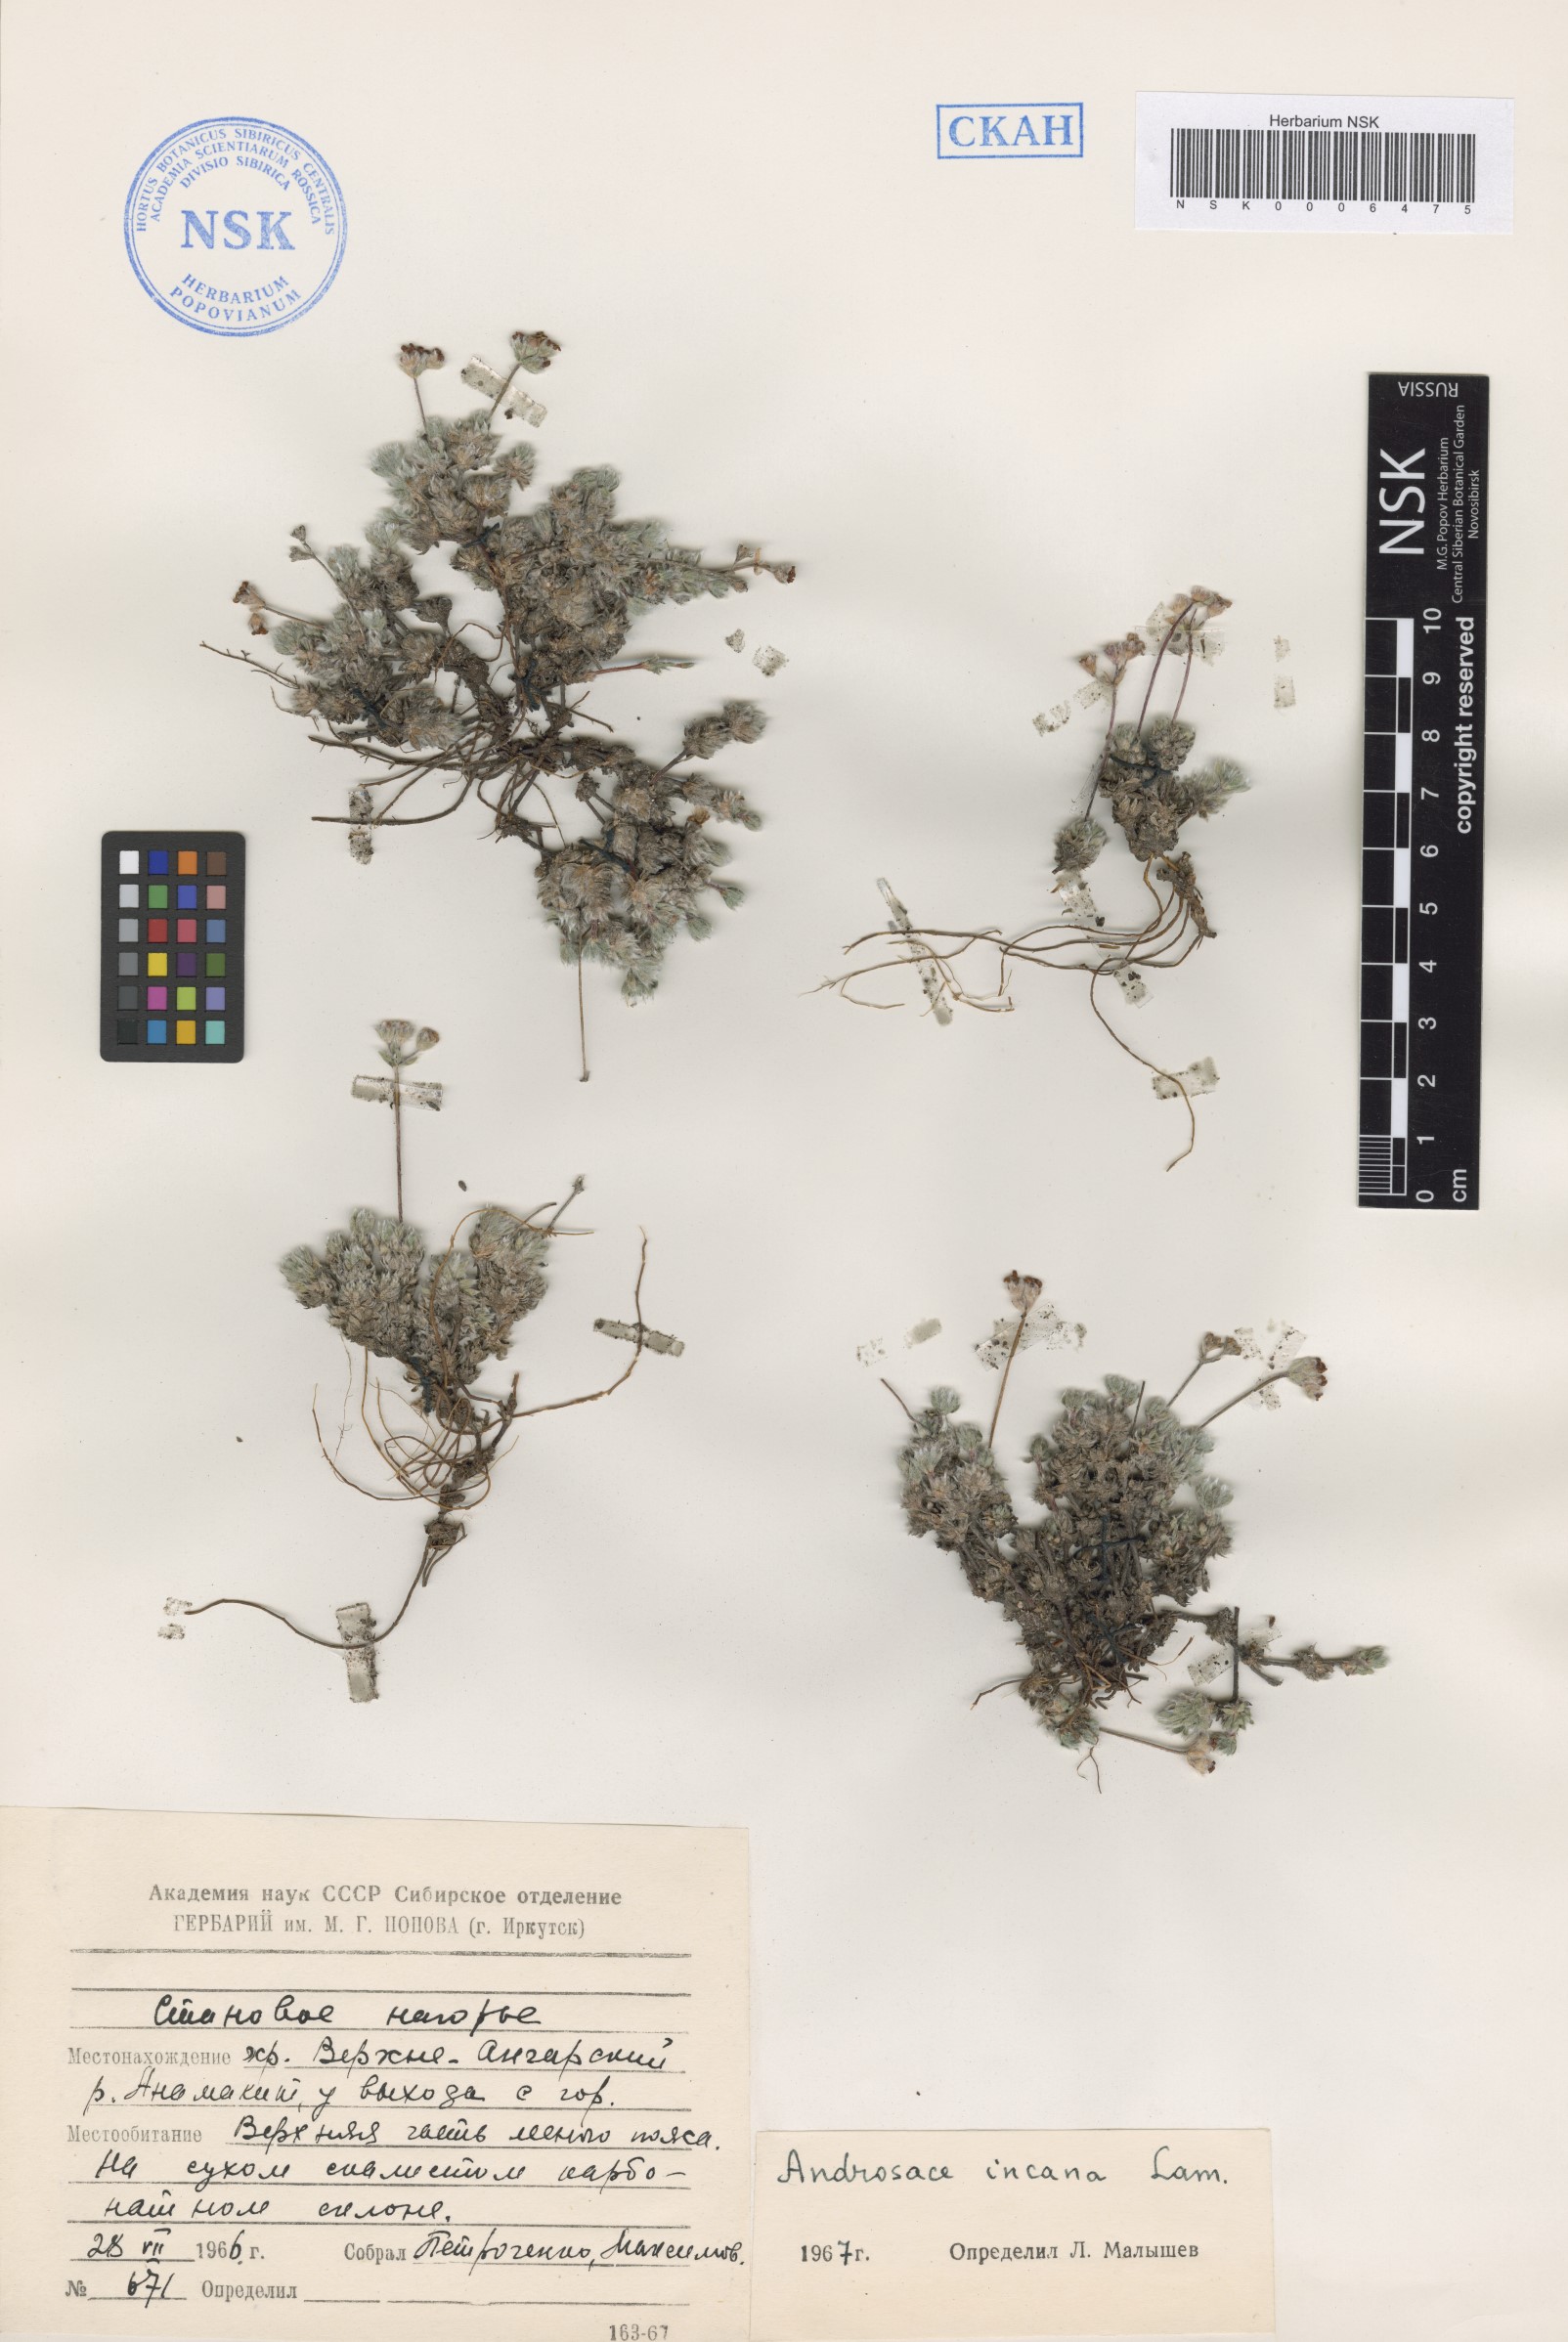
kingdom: Plantae
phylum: Tracheophyta
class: Magnoliopsida
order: Ericales
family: Primulaceae
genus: Androsace
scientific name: Androsace incana
